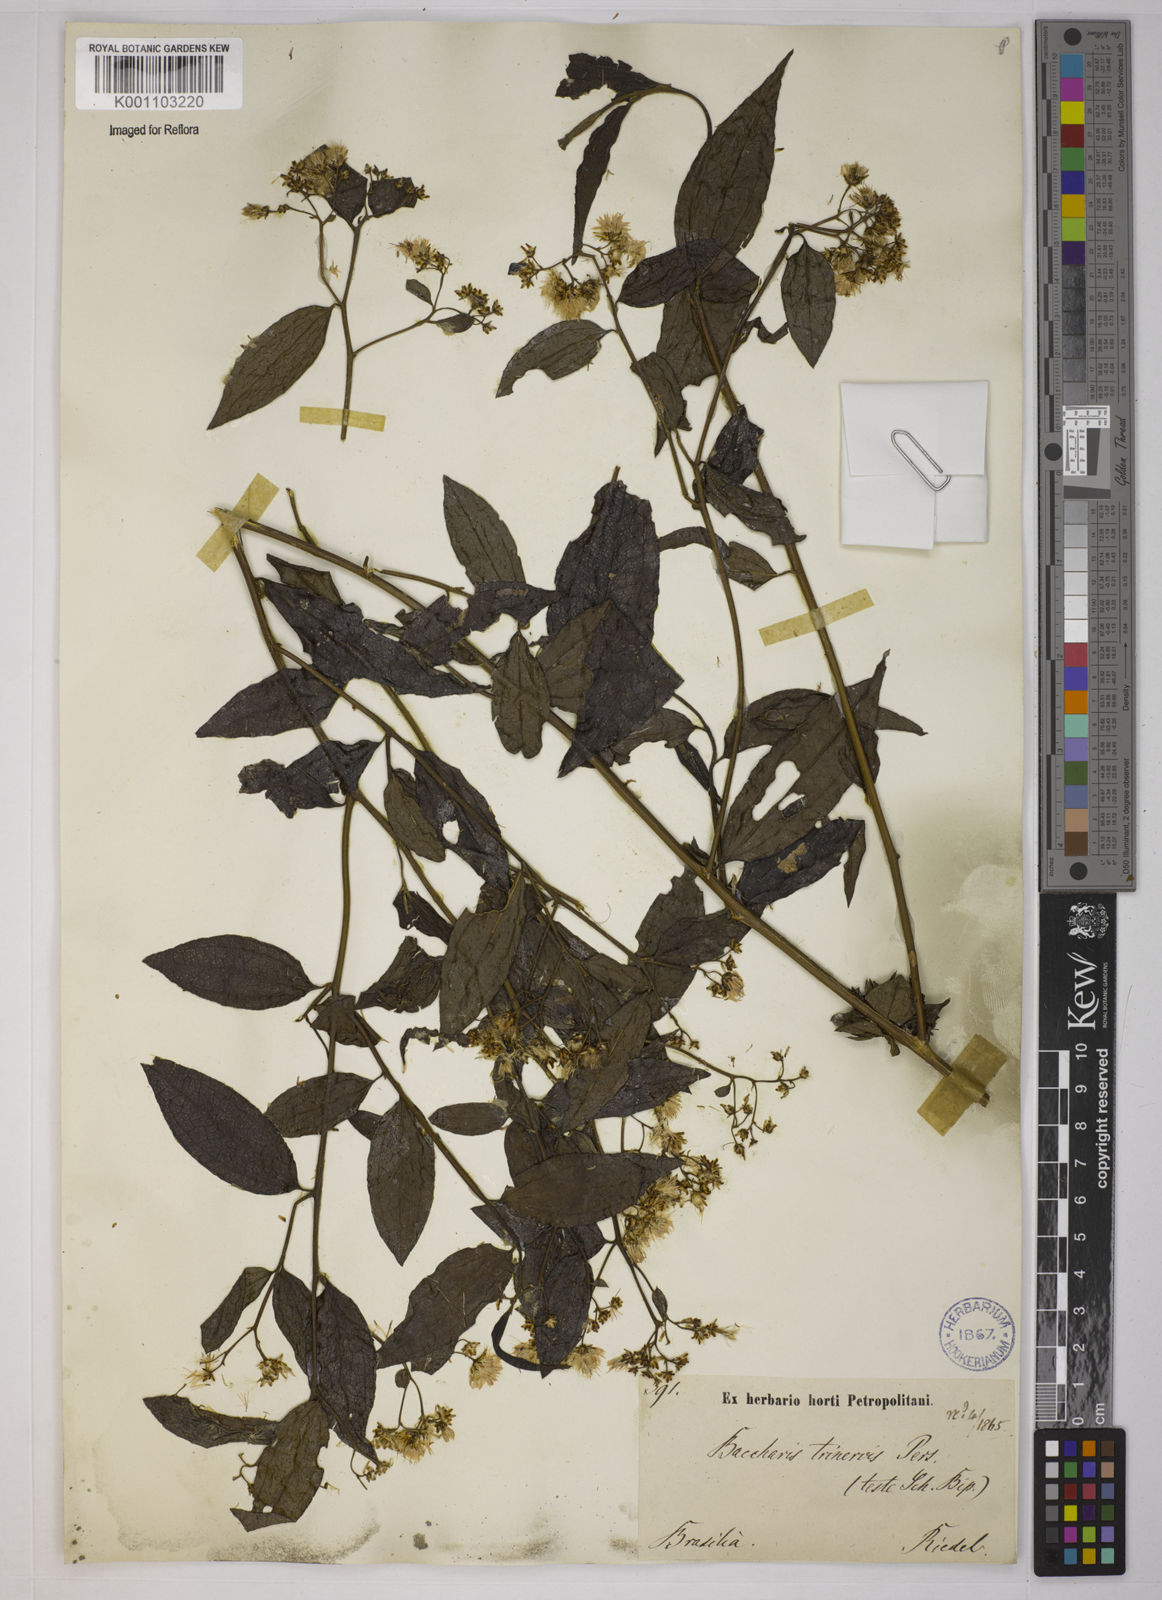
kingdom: Plantae
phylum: Tracheophyta
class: Magnoliopsida
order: Asterales
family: Asteraceae
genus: Baccharis
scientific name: Baccharis trinervis
